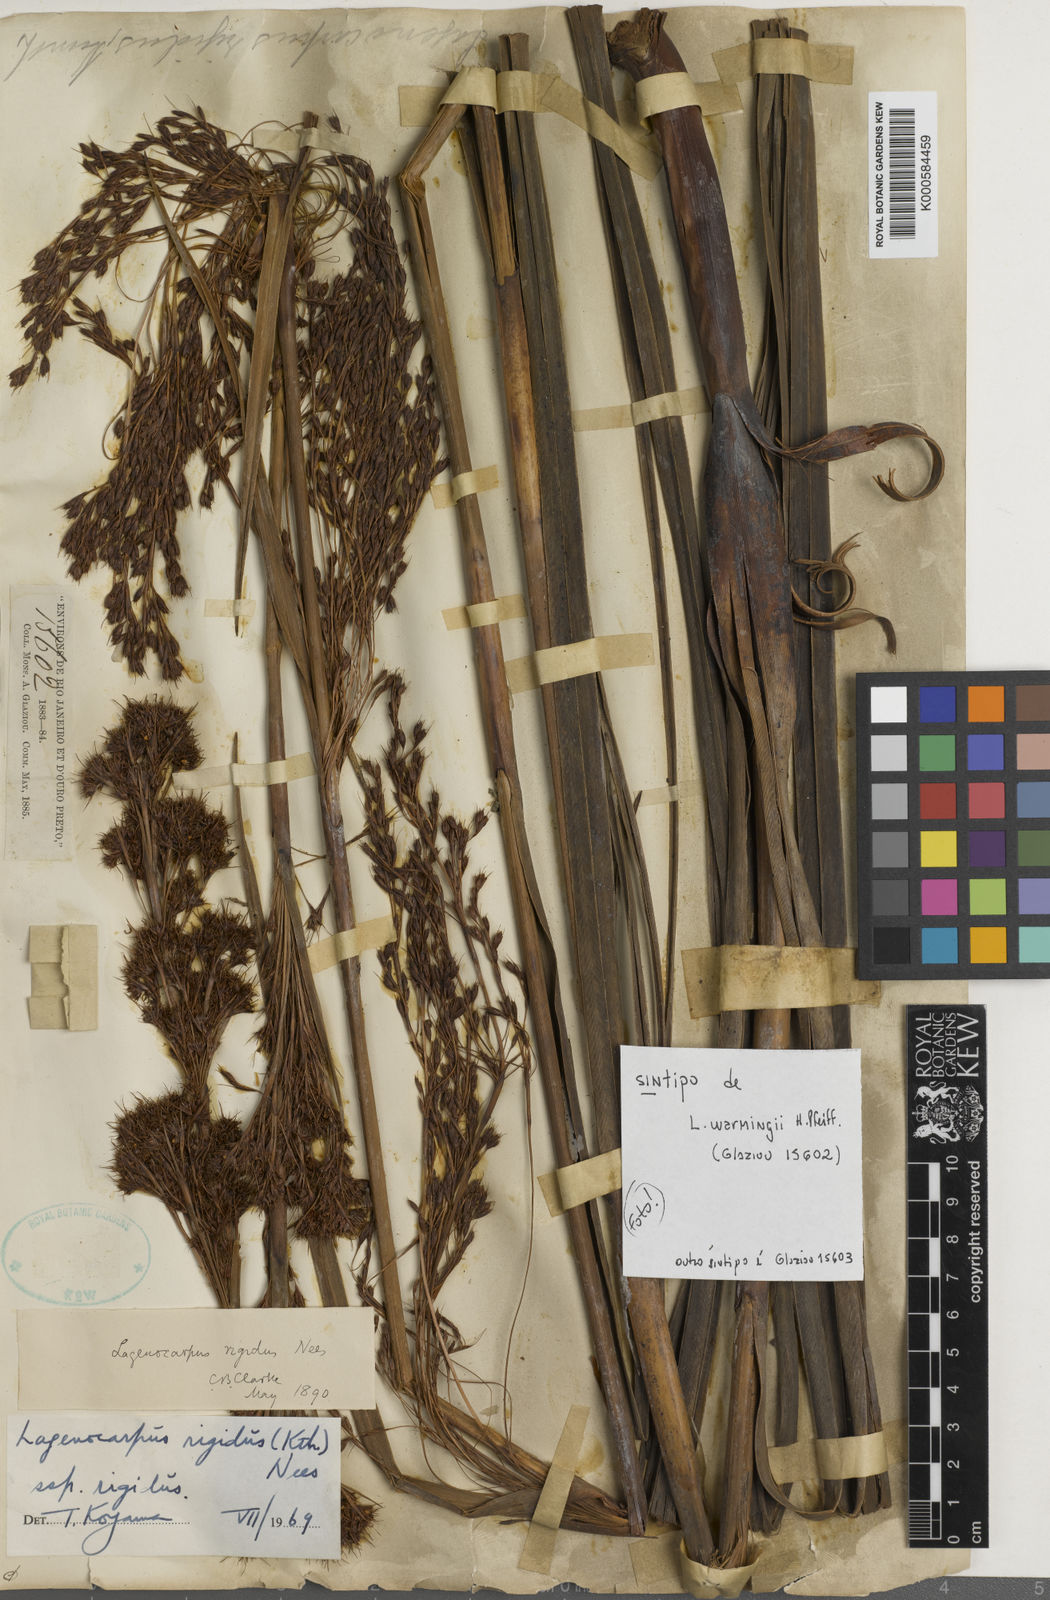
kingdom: Plantae
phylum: Tracheophyta
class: Liliopsida
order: Poales
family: Cyperaceae
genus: Lagenocarpus
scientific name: Lagenocarpus rigidus
